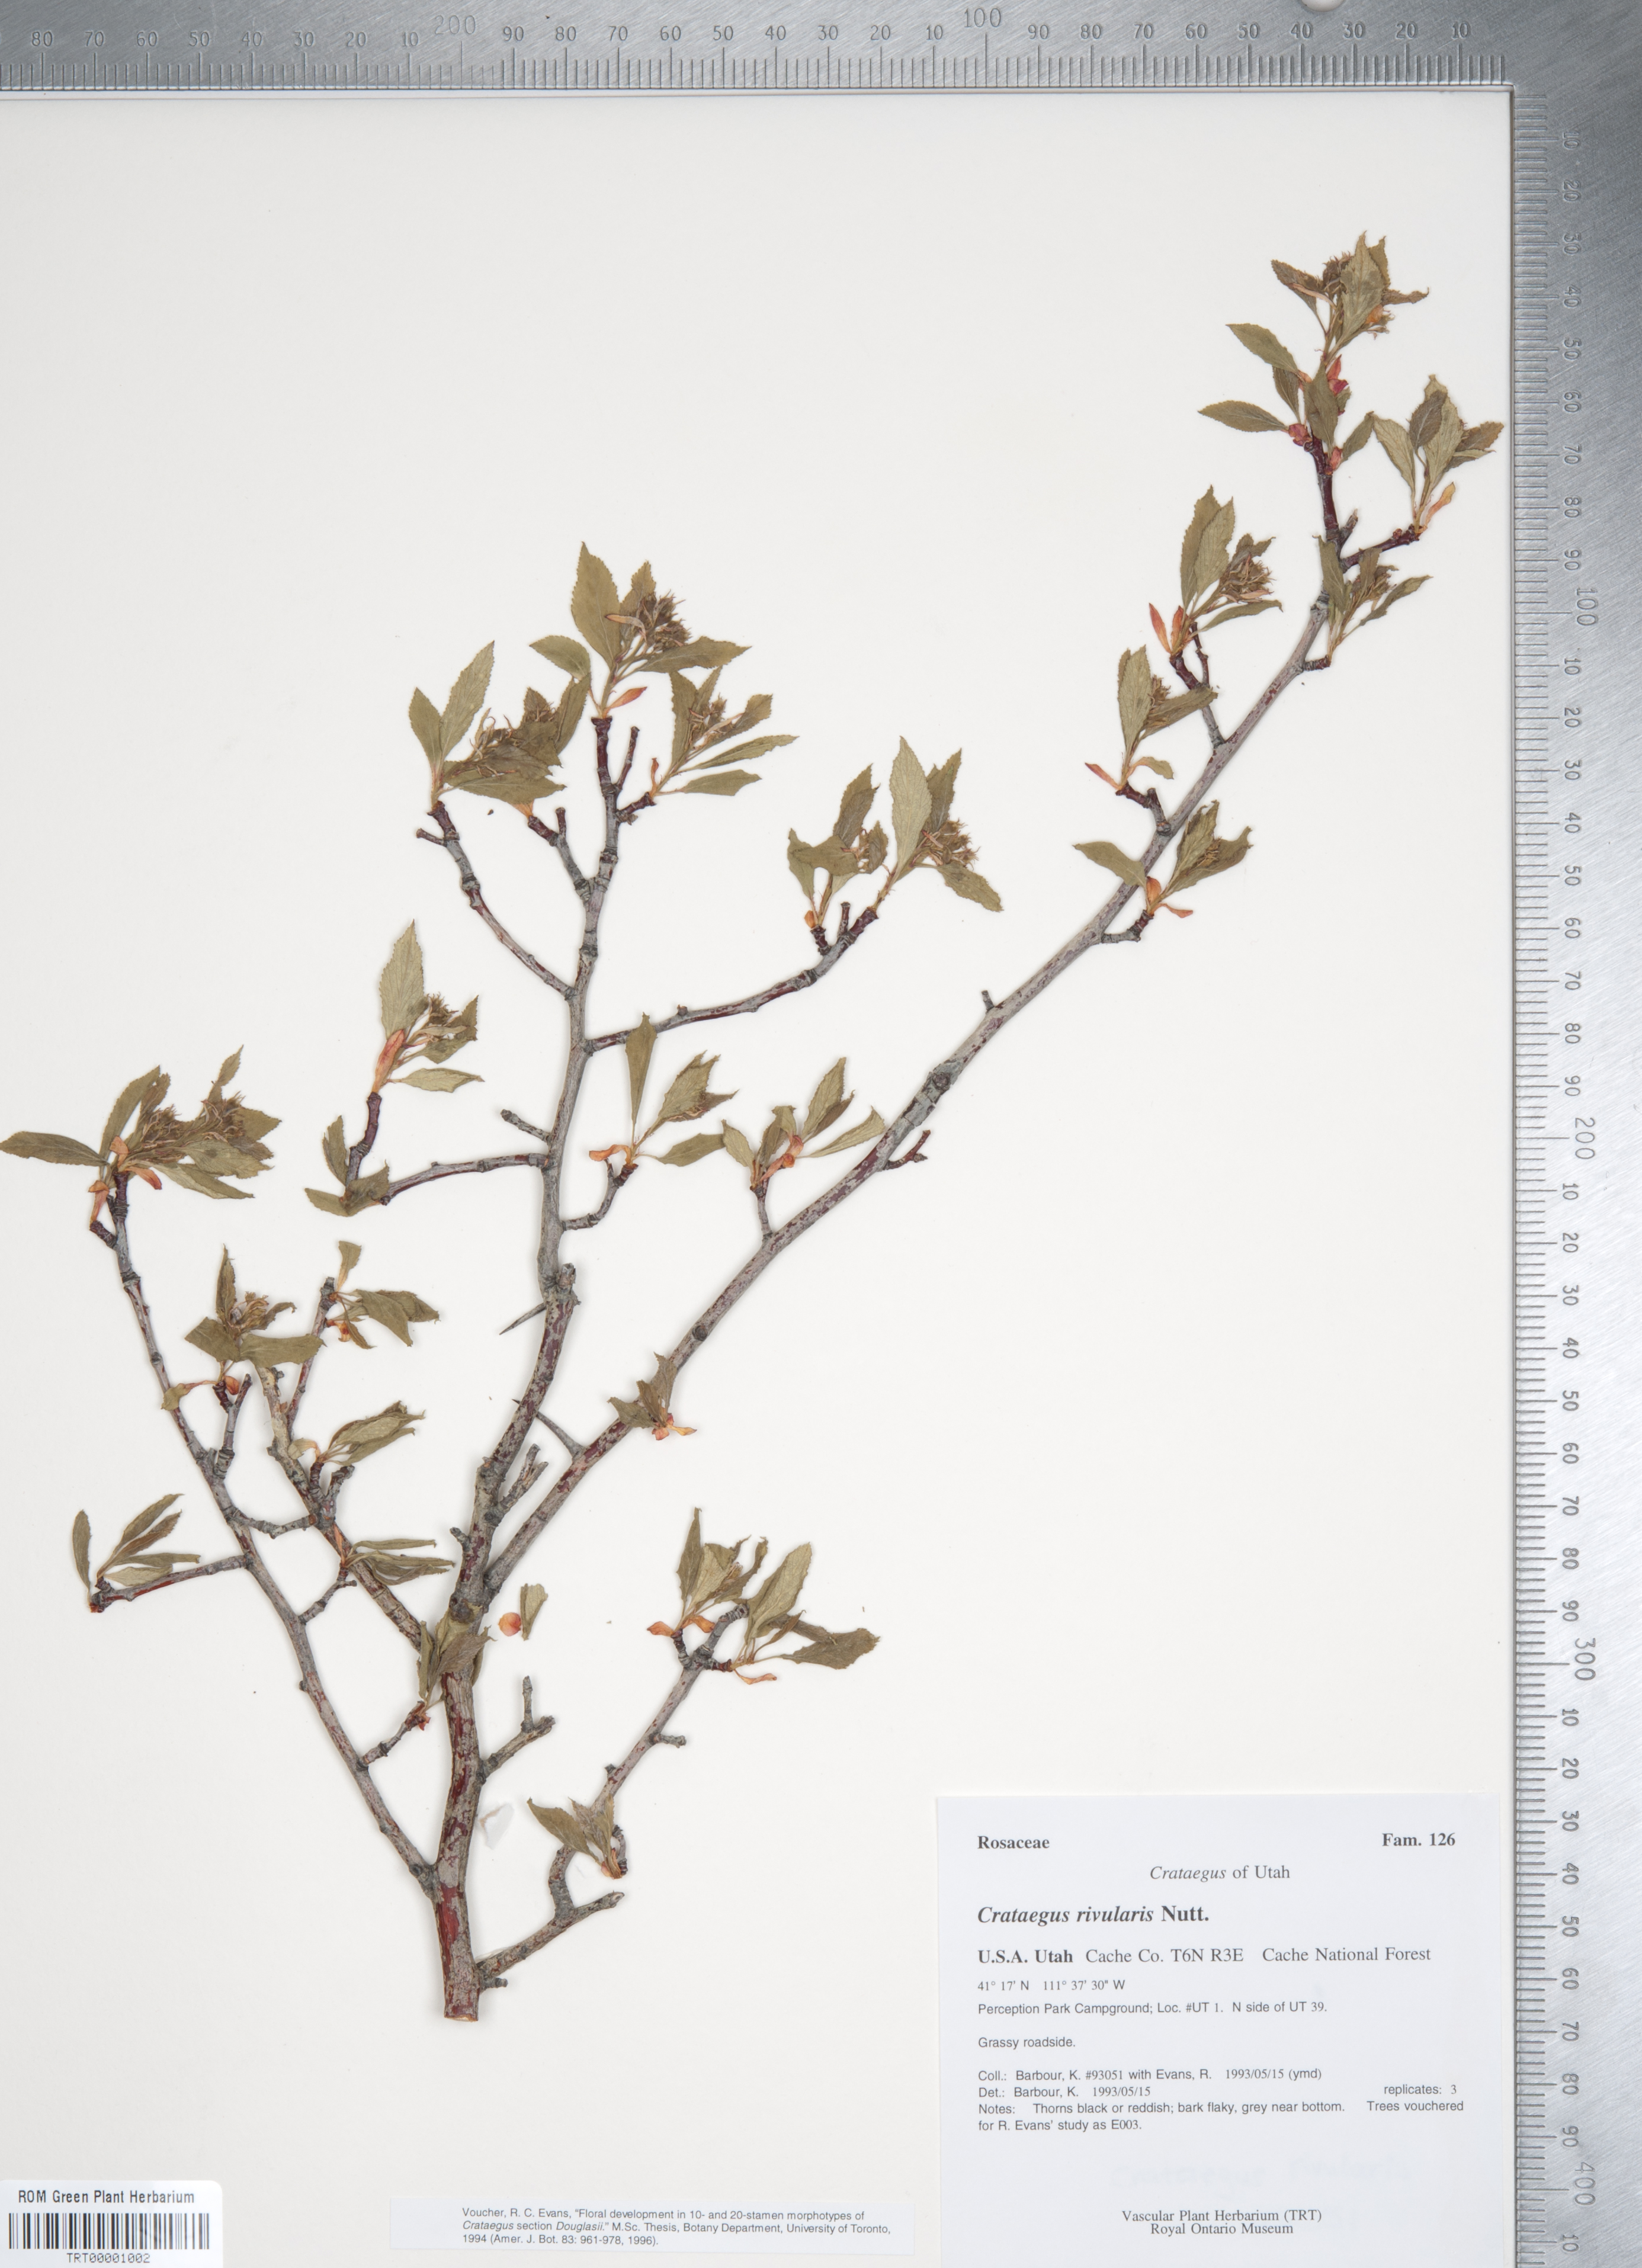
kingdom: Plantae
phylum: Tracheophyta
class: Magnoliopsida
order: Rosales
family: Rosaceae
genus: Crataegus
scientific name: Crataegus rivularis
